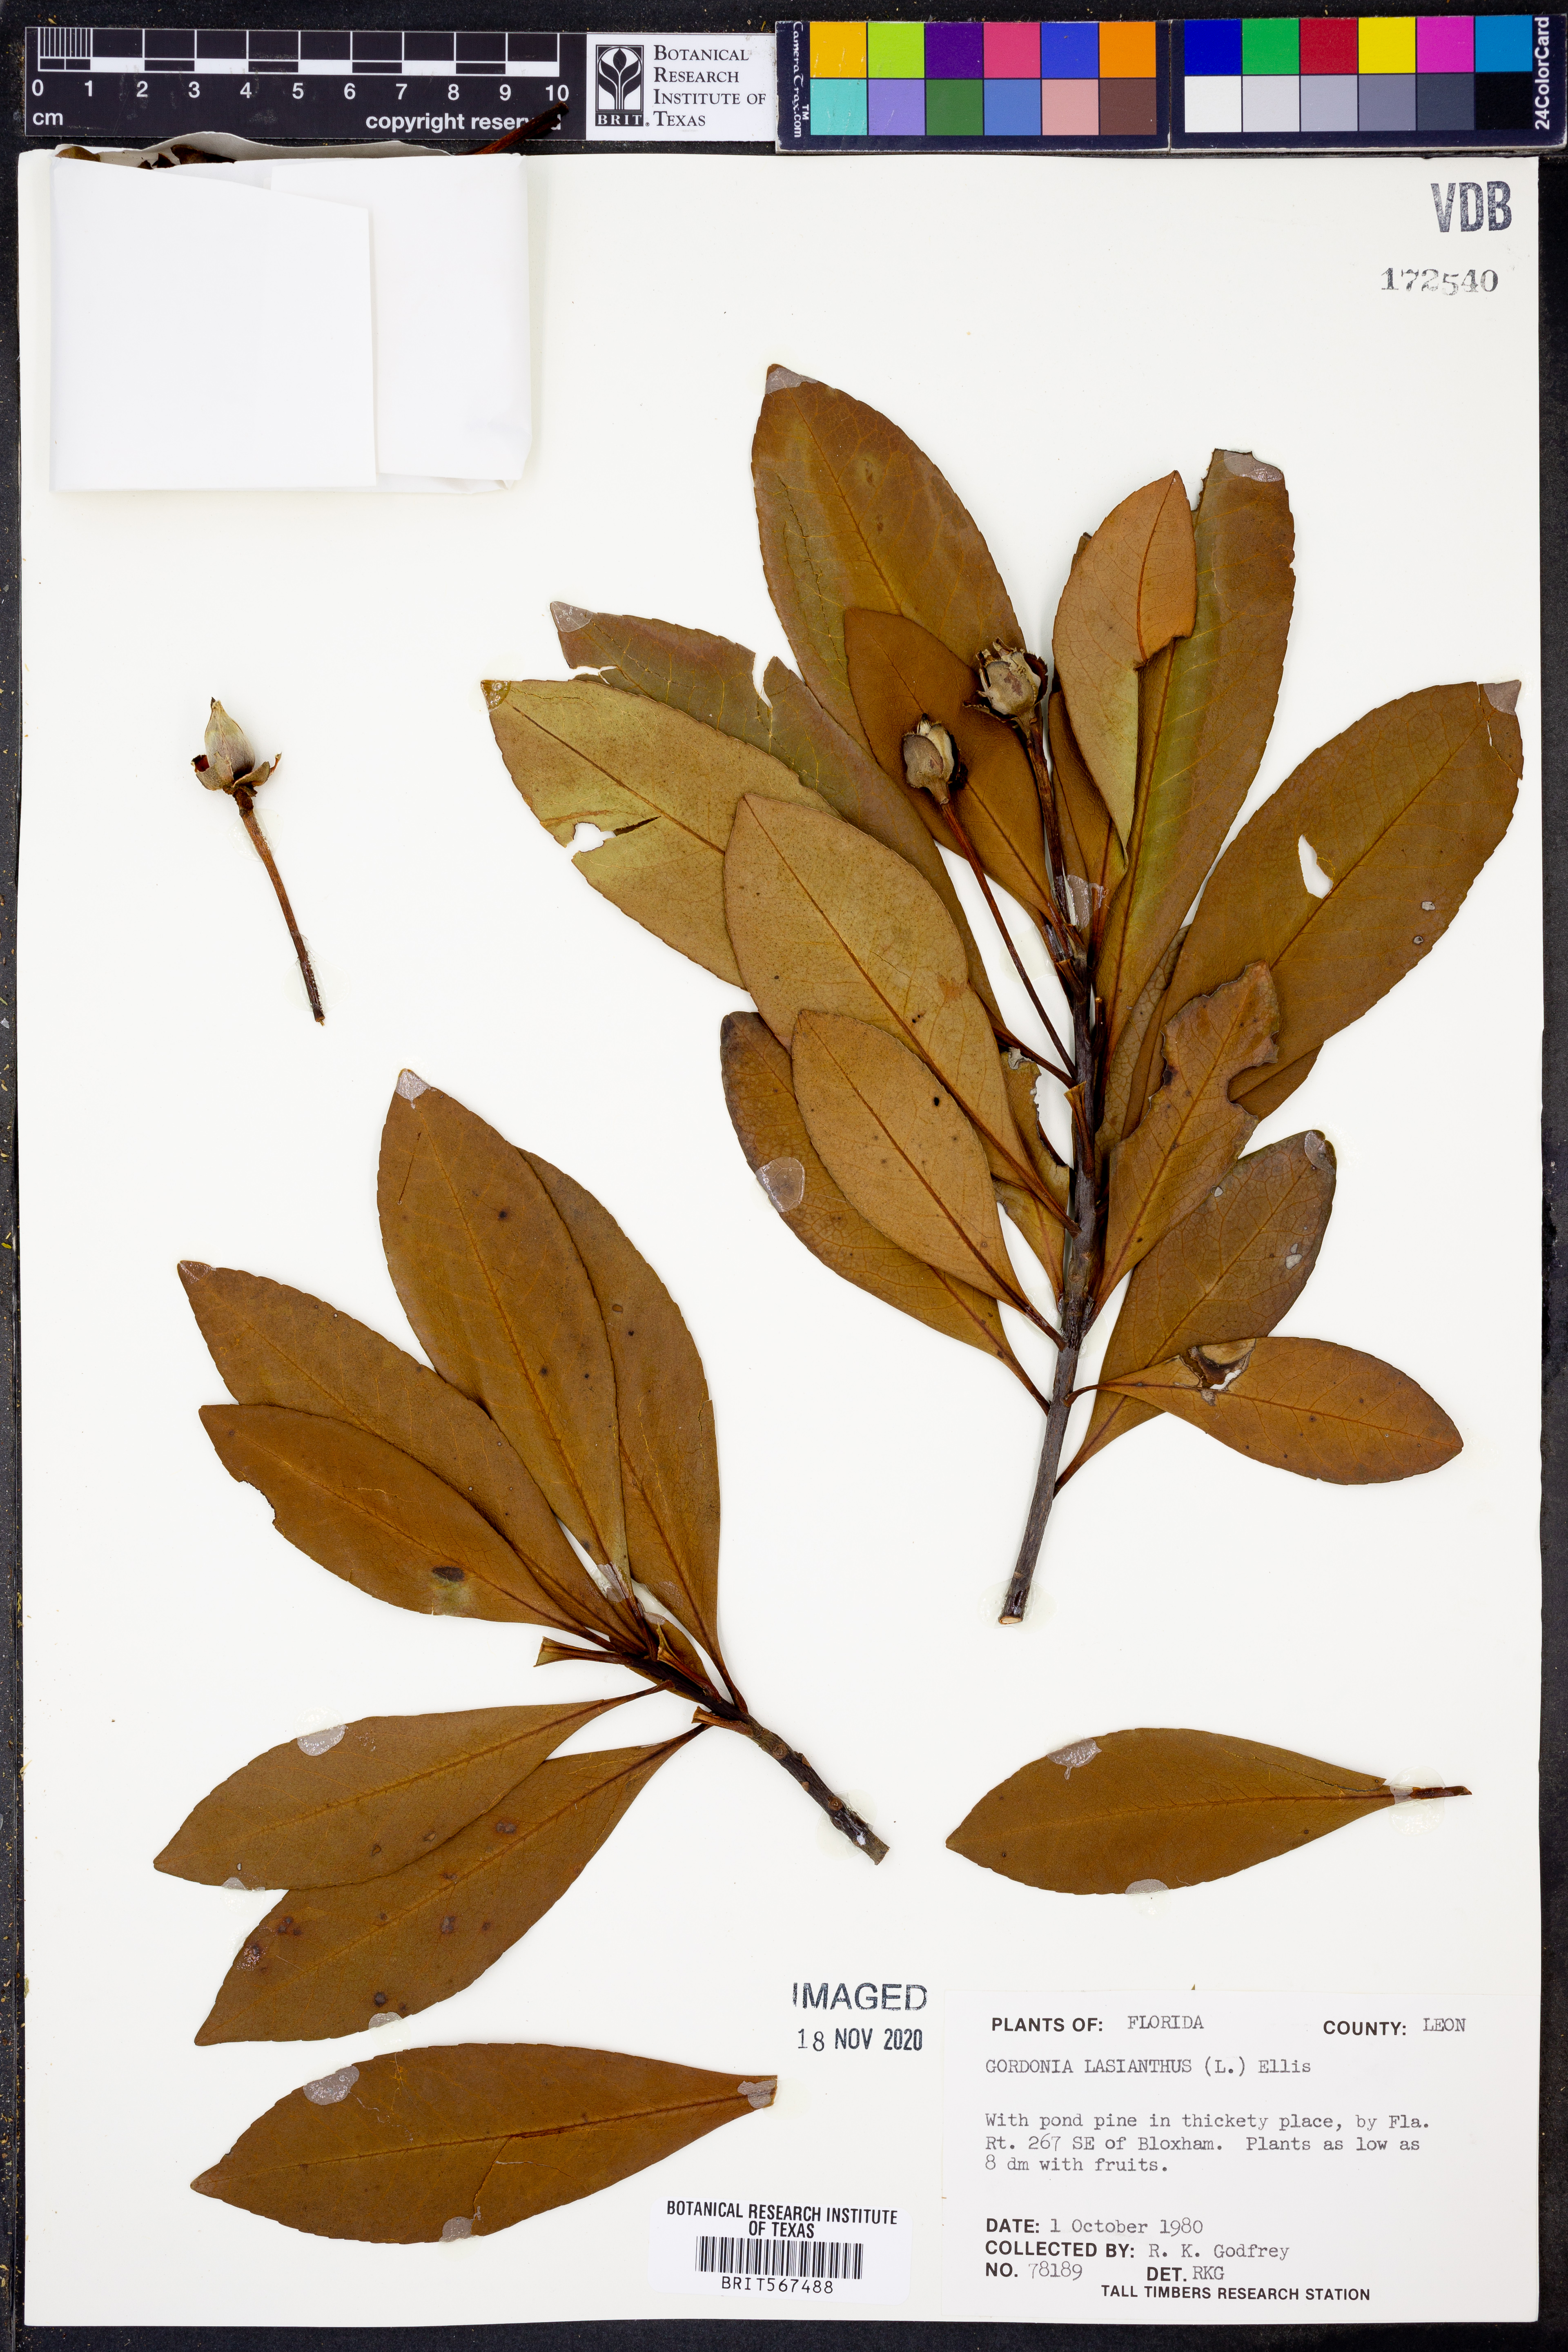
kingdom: Plantae
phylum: Tracheophyta
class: Magnoliopsida
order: Ericales
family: Theaceae
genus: Gordonia
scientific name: Gordonia lasianthus
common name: Loblolly bay
